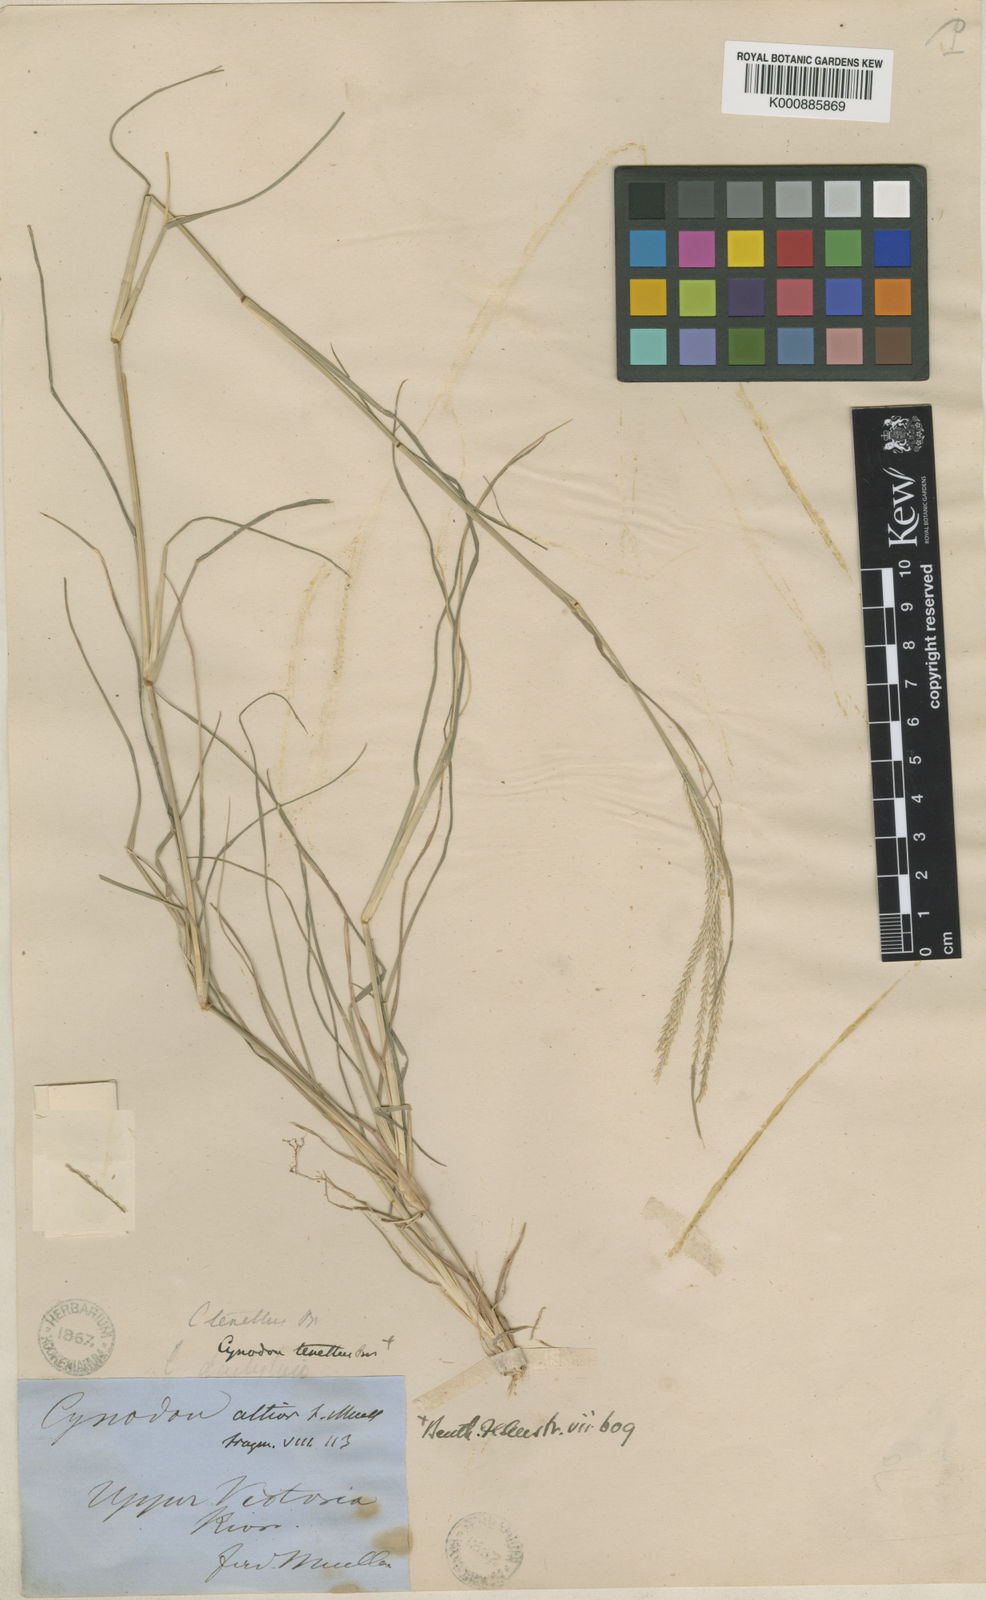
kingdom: Plantae
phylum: Tracheophyta
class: Liliopsida
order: Poales
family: Poaceae
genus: Cynodon
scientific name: Cynodon tenellus
